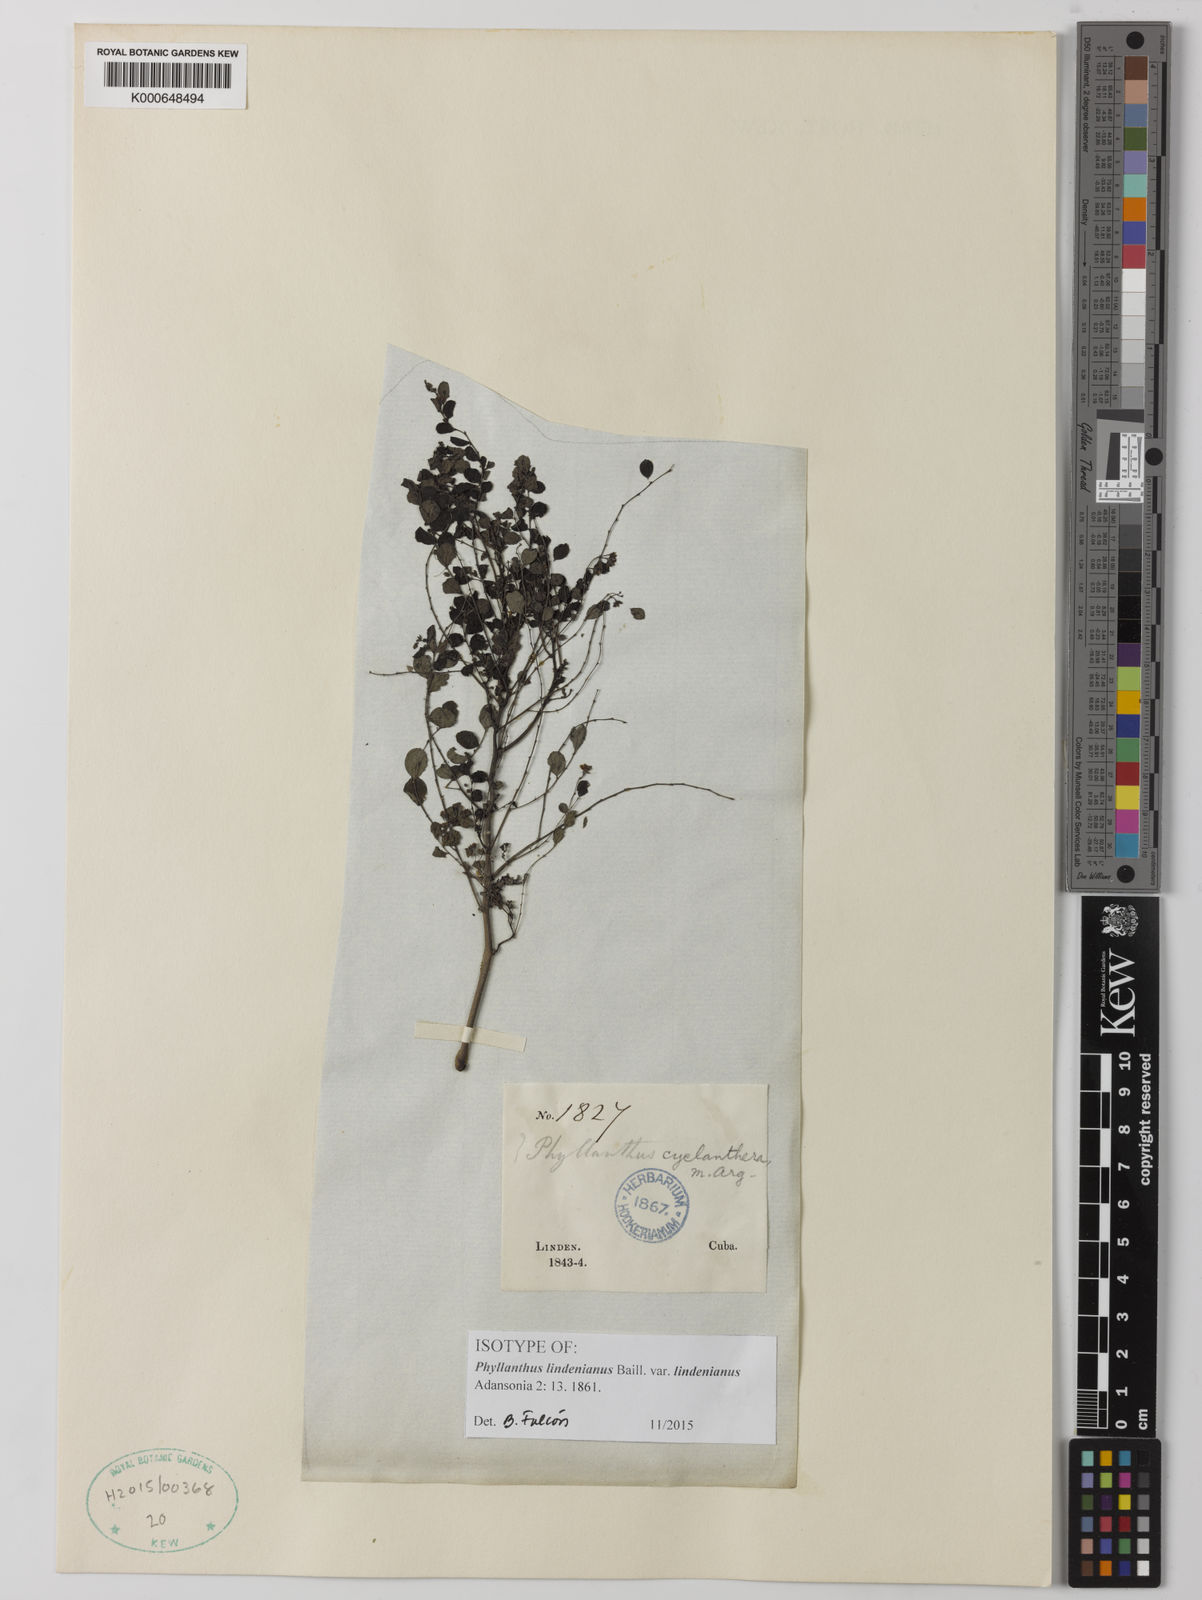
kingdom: Plantae
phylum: Tracheophyta
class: Magnoliopsida
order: Malpighiales
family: Phyllanthaceae
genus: Phyllanthus
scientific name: Phyllanthus lindenianus
